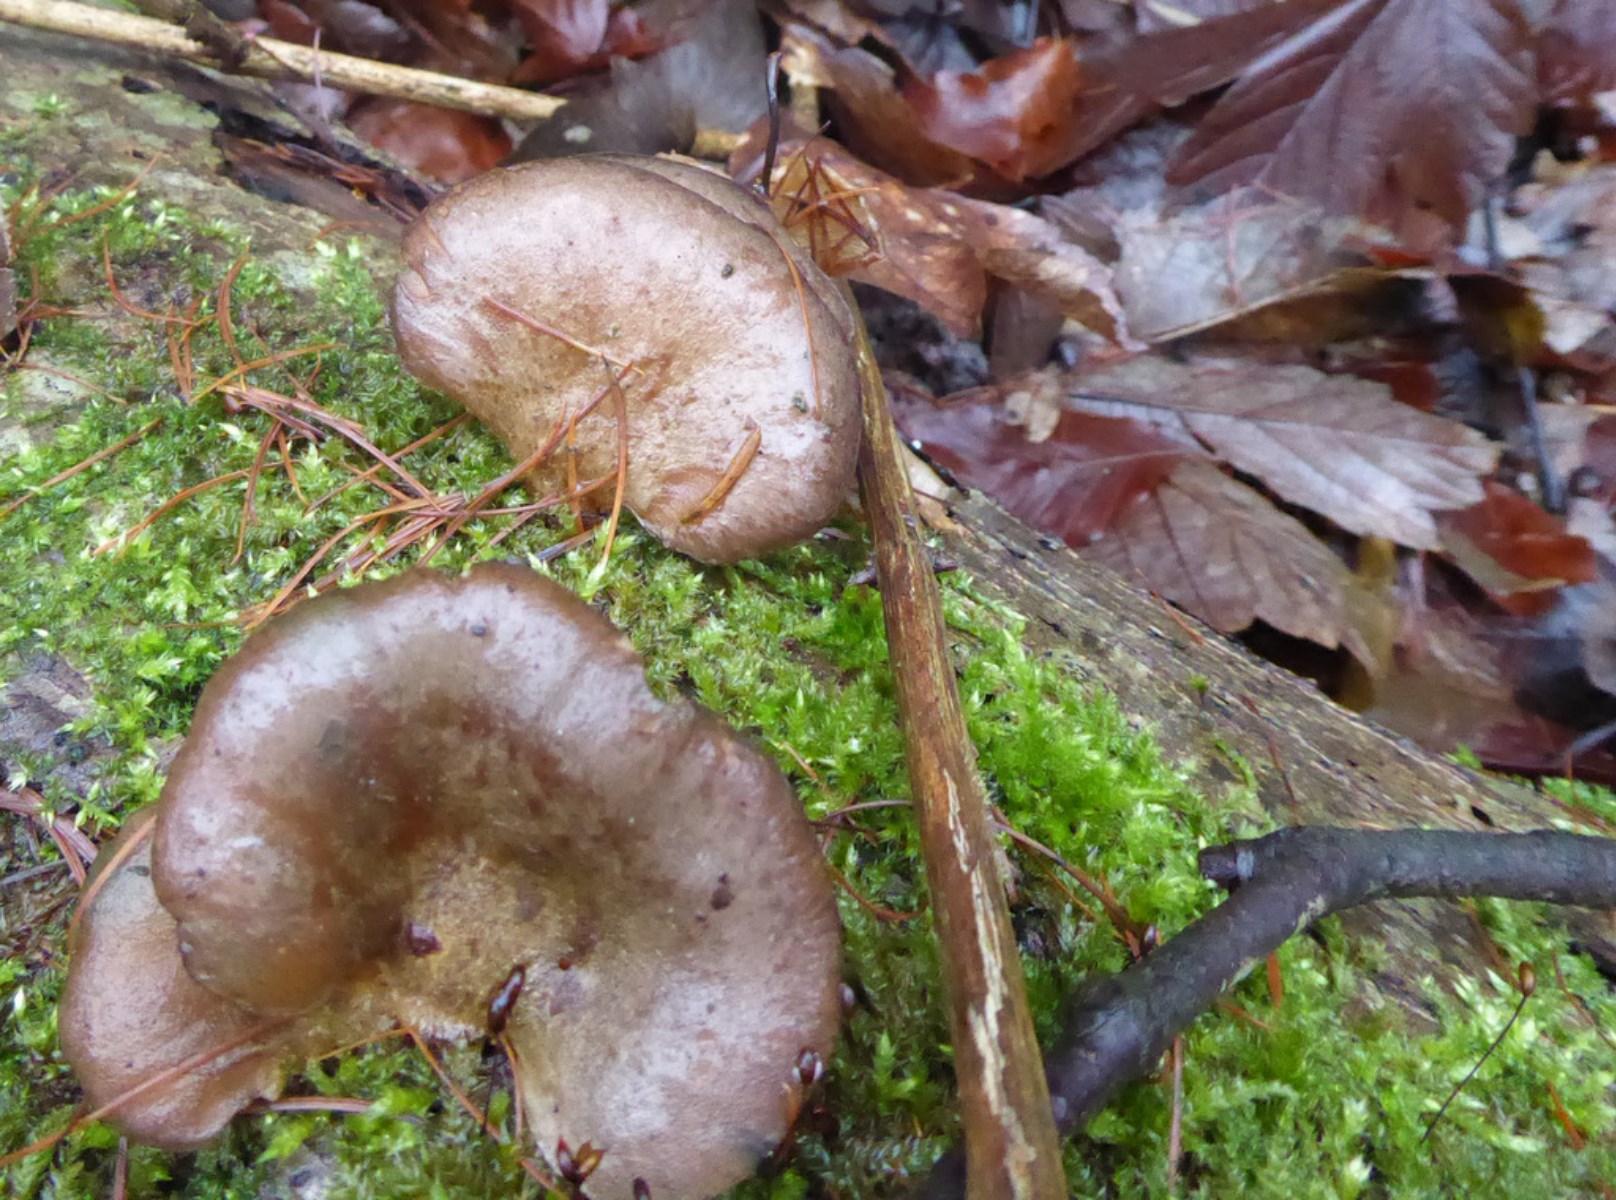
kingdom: Fungi
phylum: Basidiomycota
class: Agaricomycetes
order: Agaricales
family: Sarcomyxaceae
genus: Sarcomyxa
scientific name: Sarcomyxa serotina
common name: gummihat
